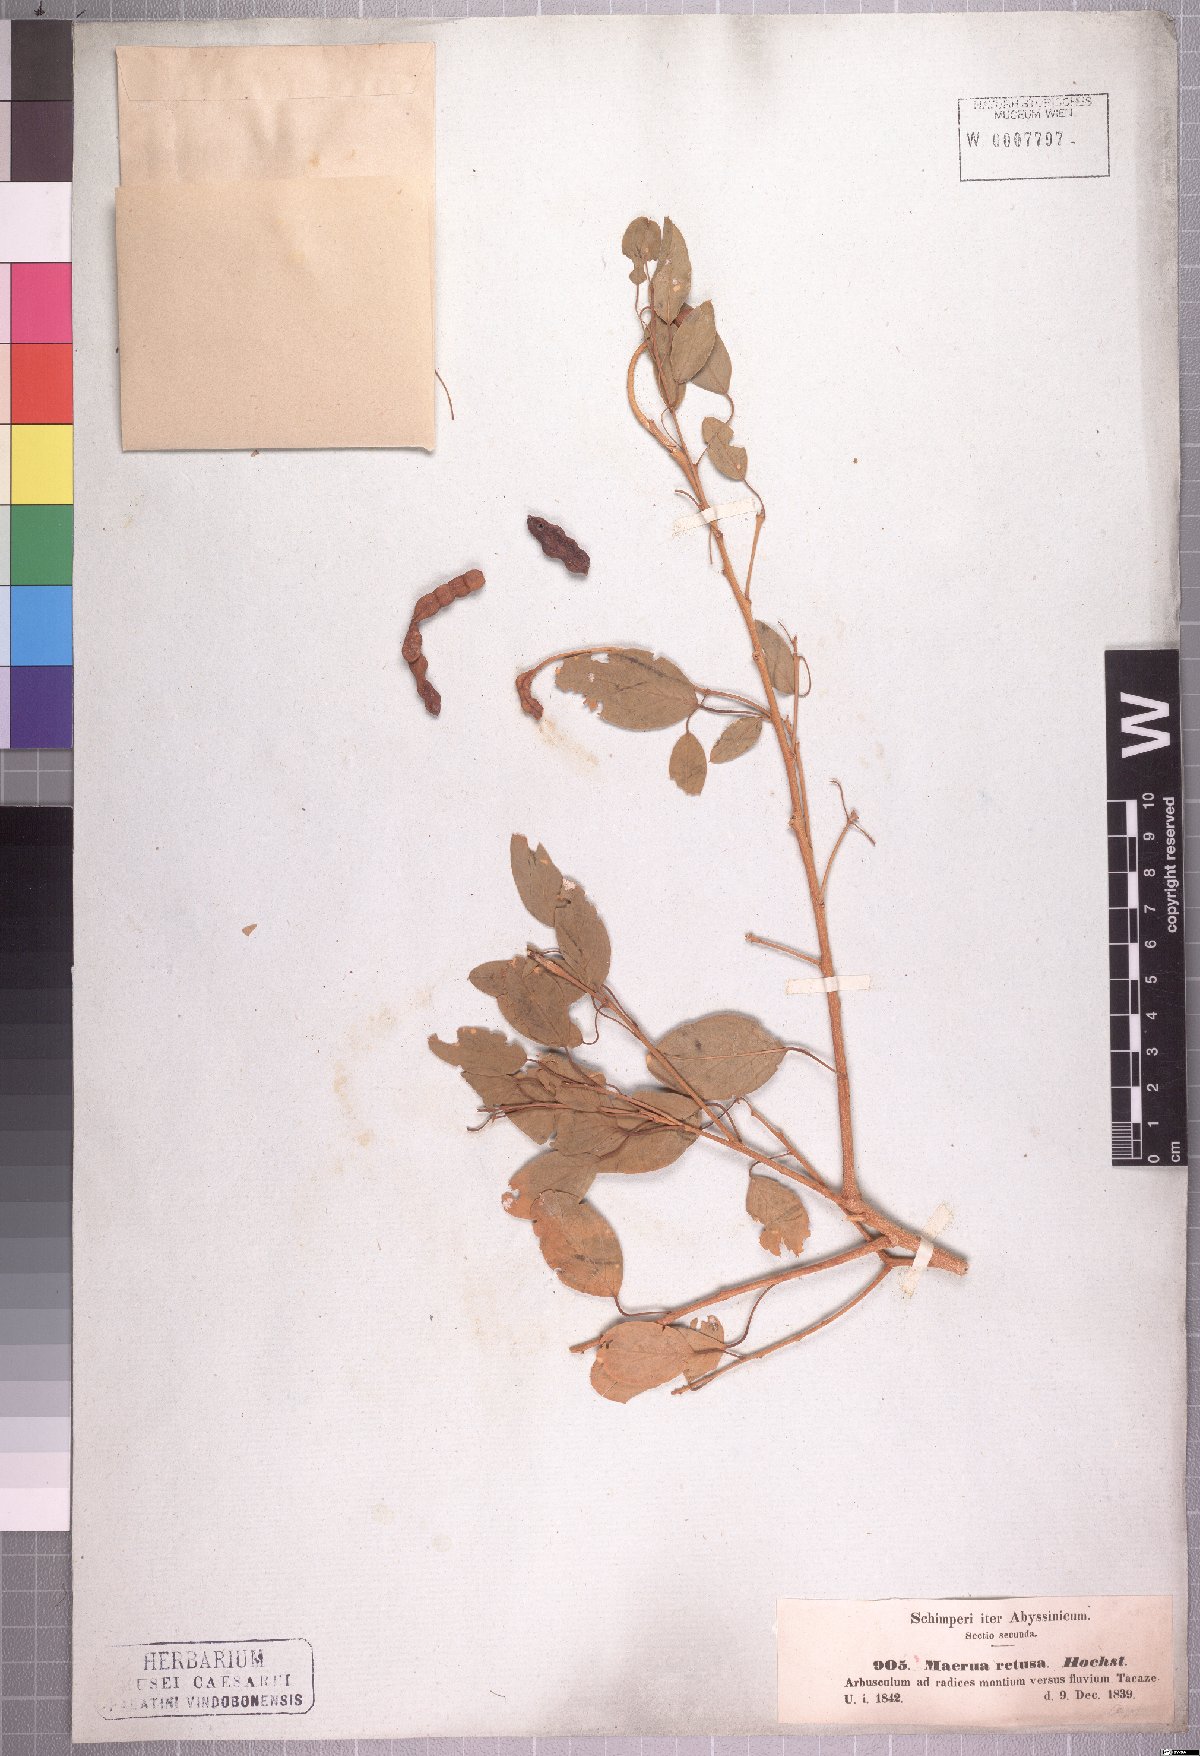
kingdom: Plantae
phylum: Tracheophyta
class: Magnoliopsida
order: Brassicales
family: Capparaceae
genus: Maerua
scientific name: Maerua angolensis
